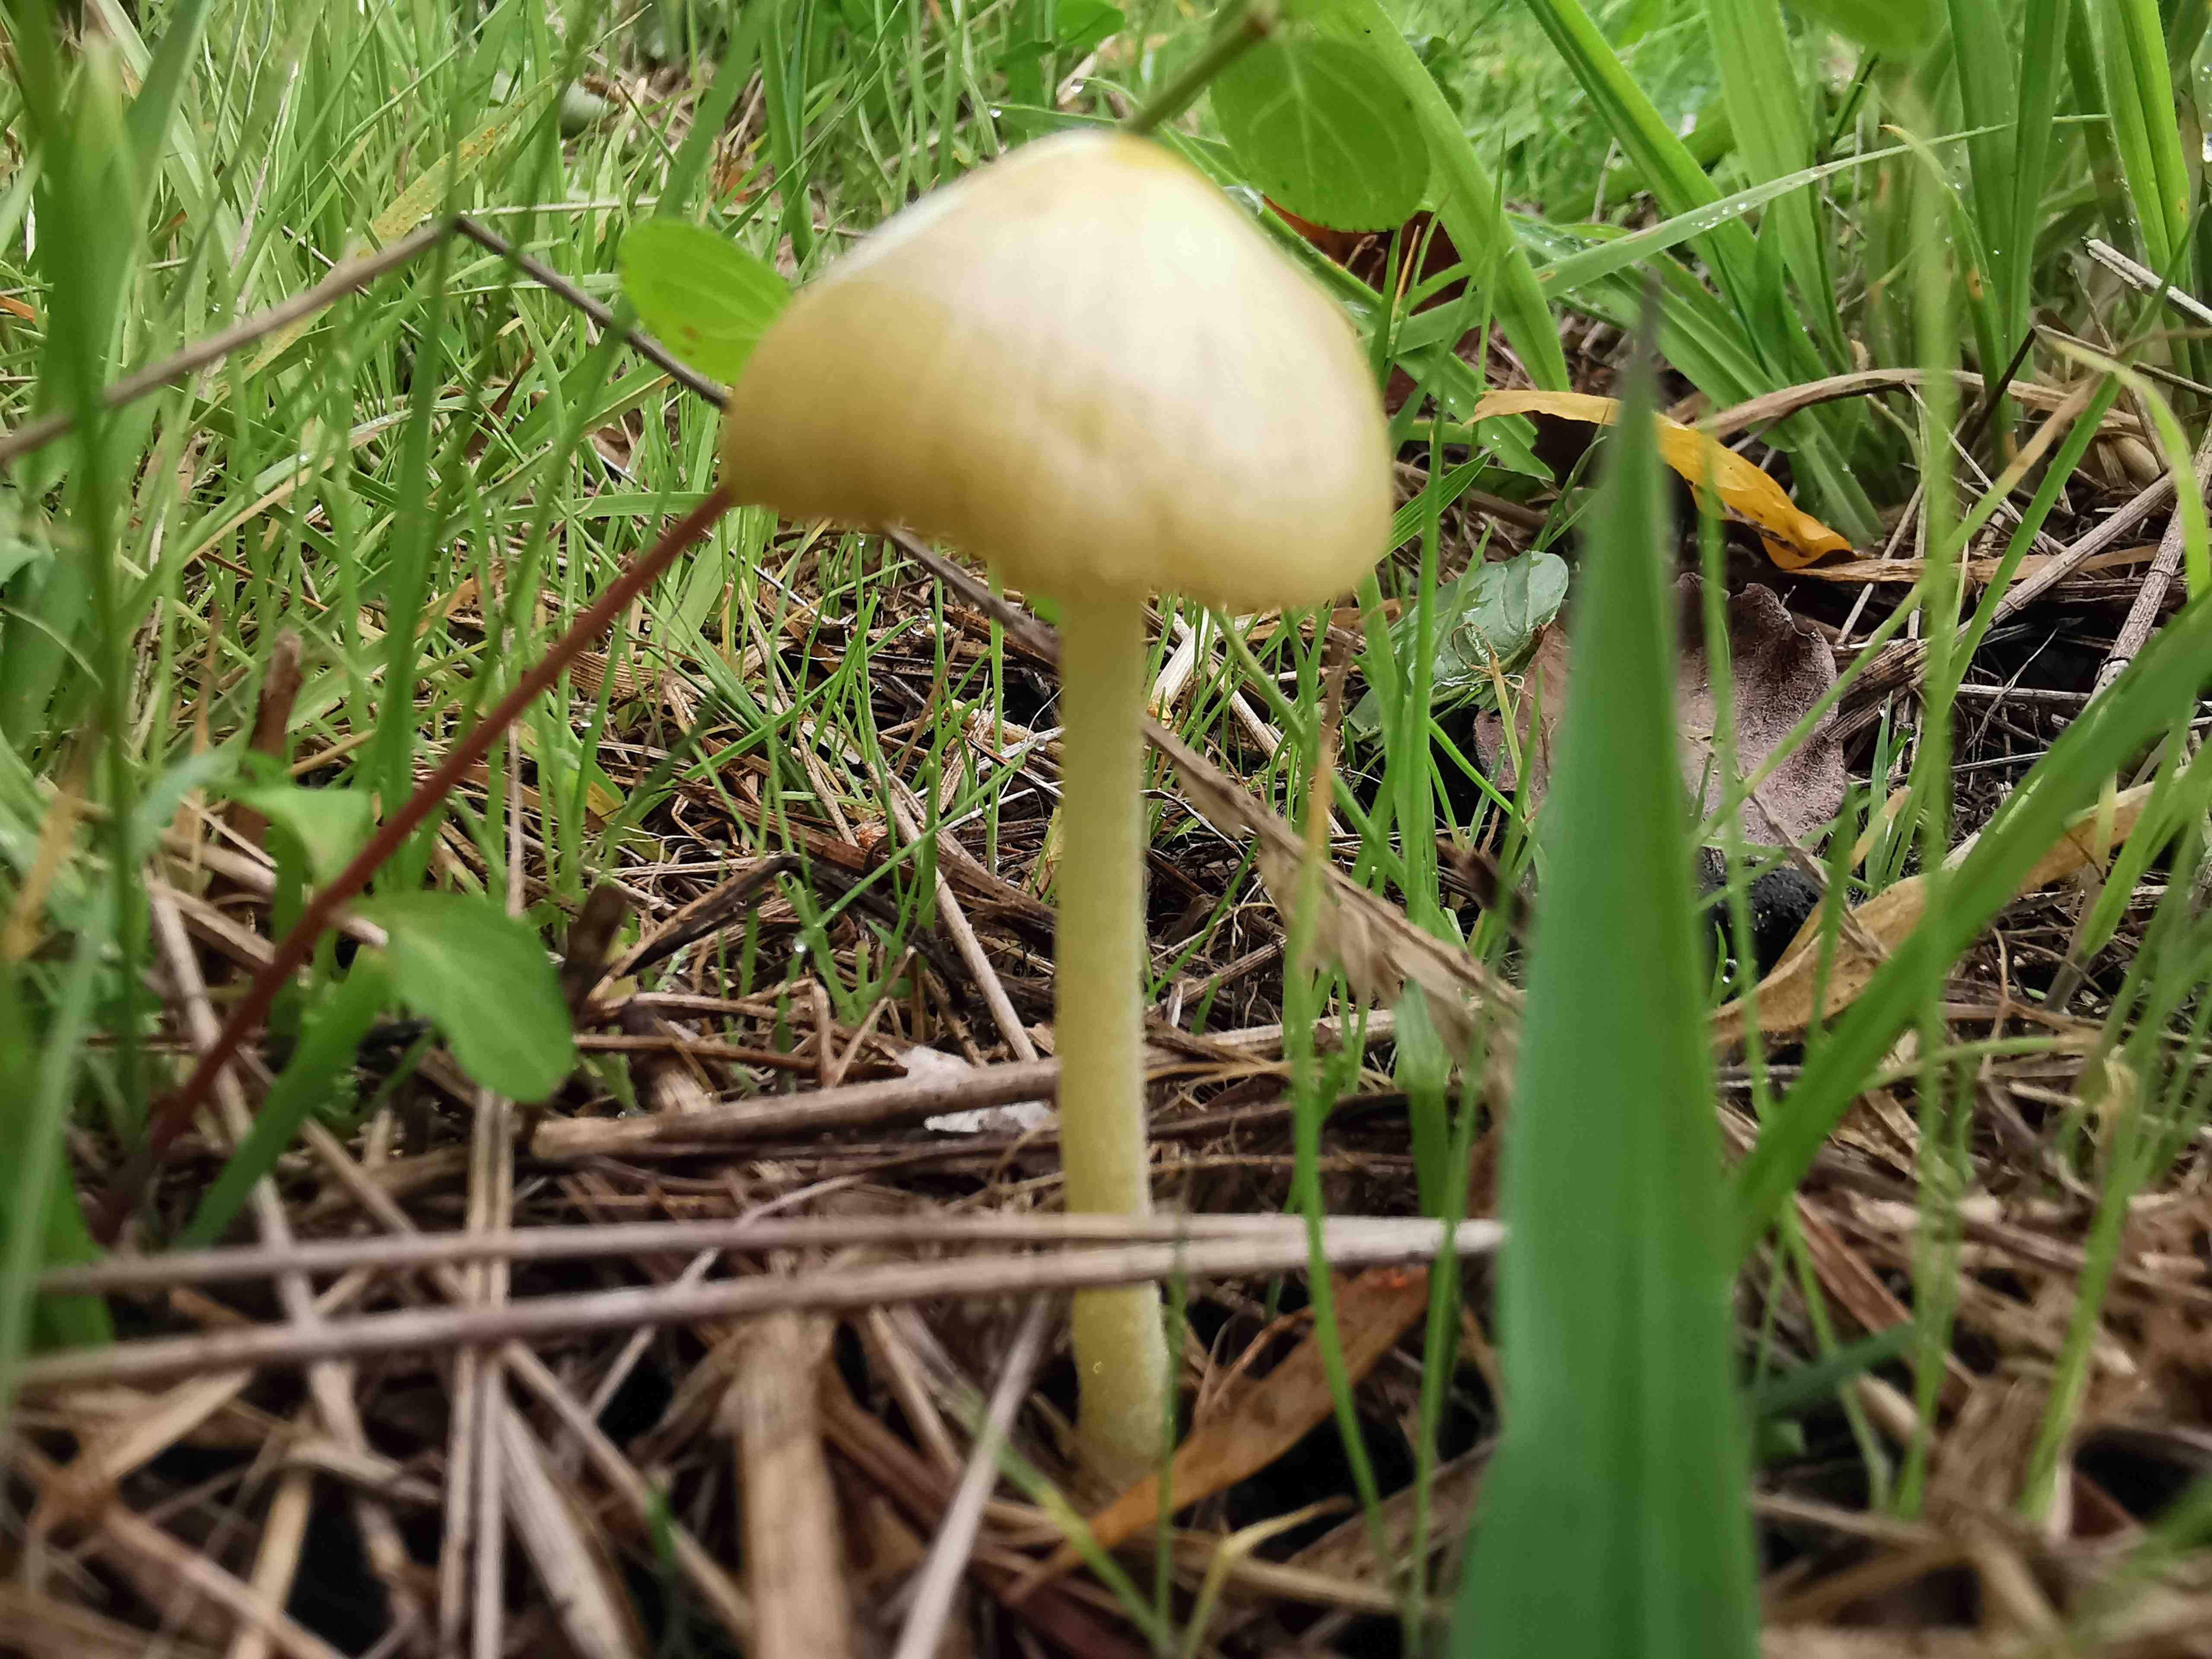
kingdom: Fungi
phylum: Basidiomycota
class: Agaricomycetes
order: Agaricales
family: Bolbitiaceae
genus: Bolbitius
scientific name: Bolbitius titubans
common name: almindelig gulhat
